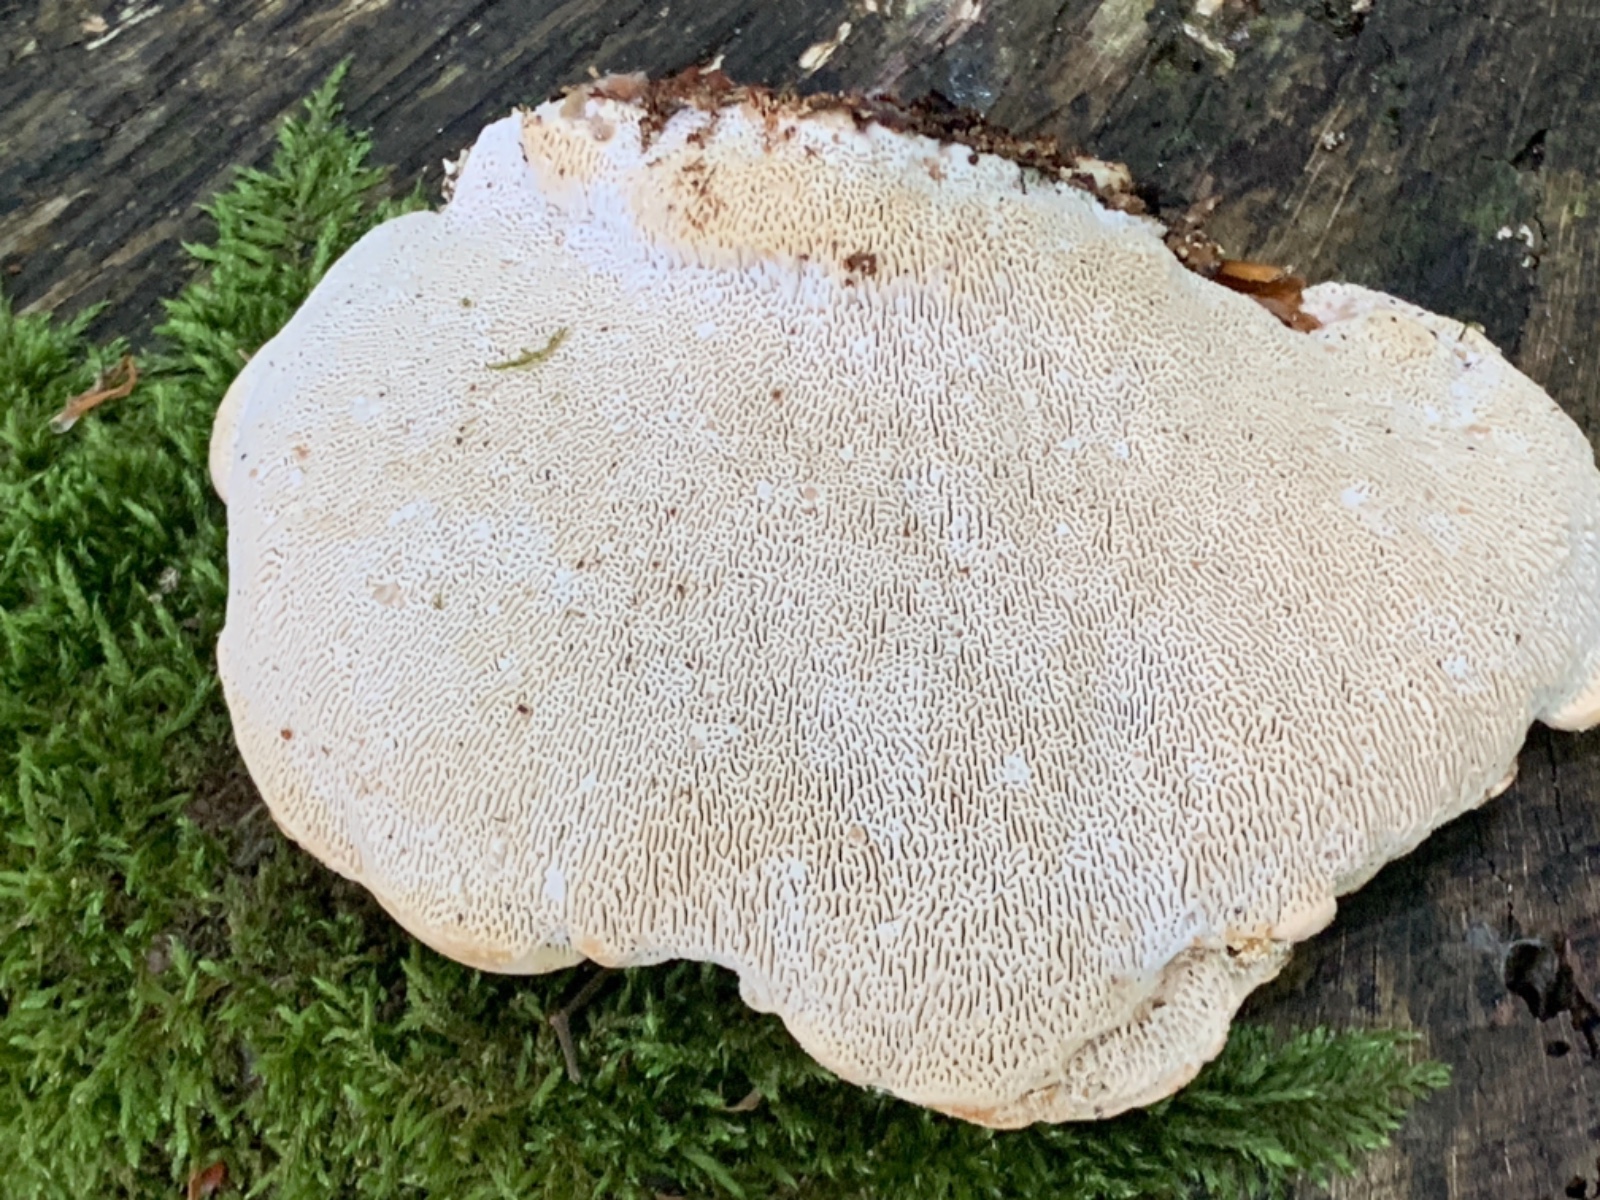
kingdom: Fungi
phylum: Basidiomycota
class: Agaricomycetes
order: Polyporales
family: Polyporaceae
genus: Trametes
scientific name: Trametes gibbosa
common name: puklet læderporesvamp
